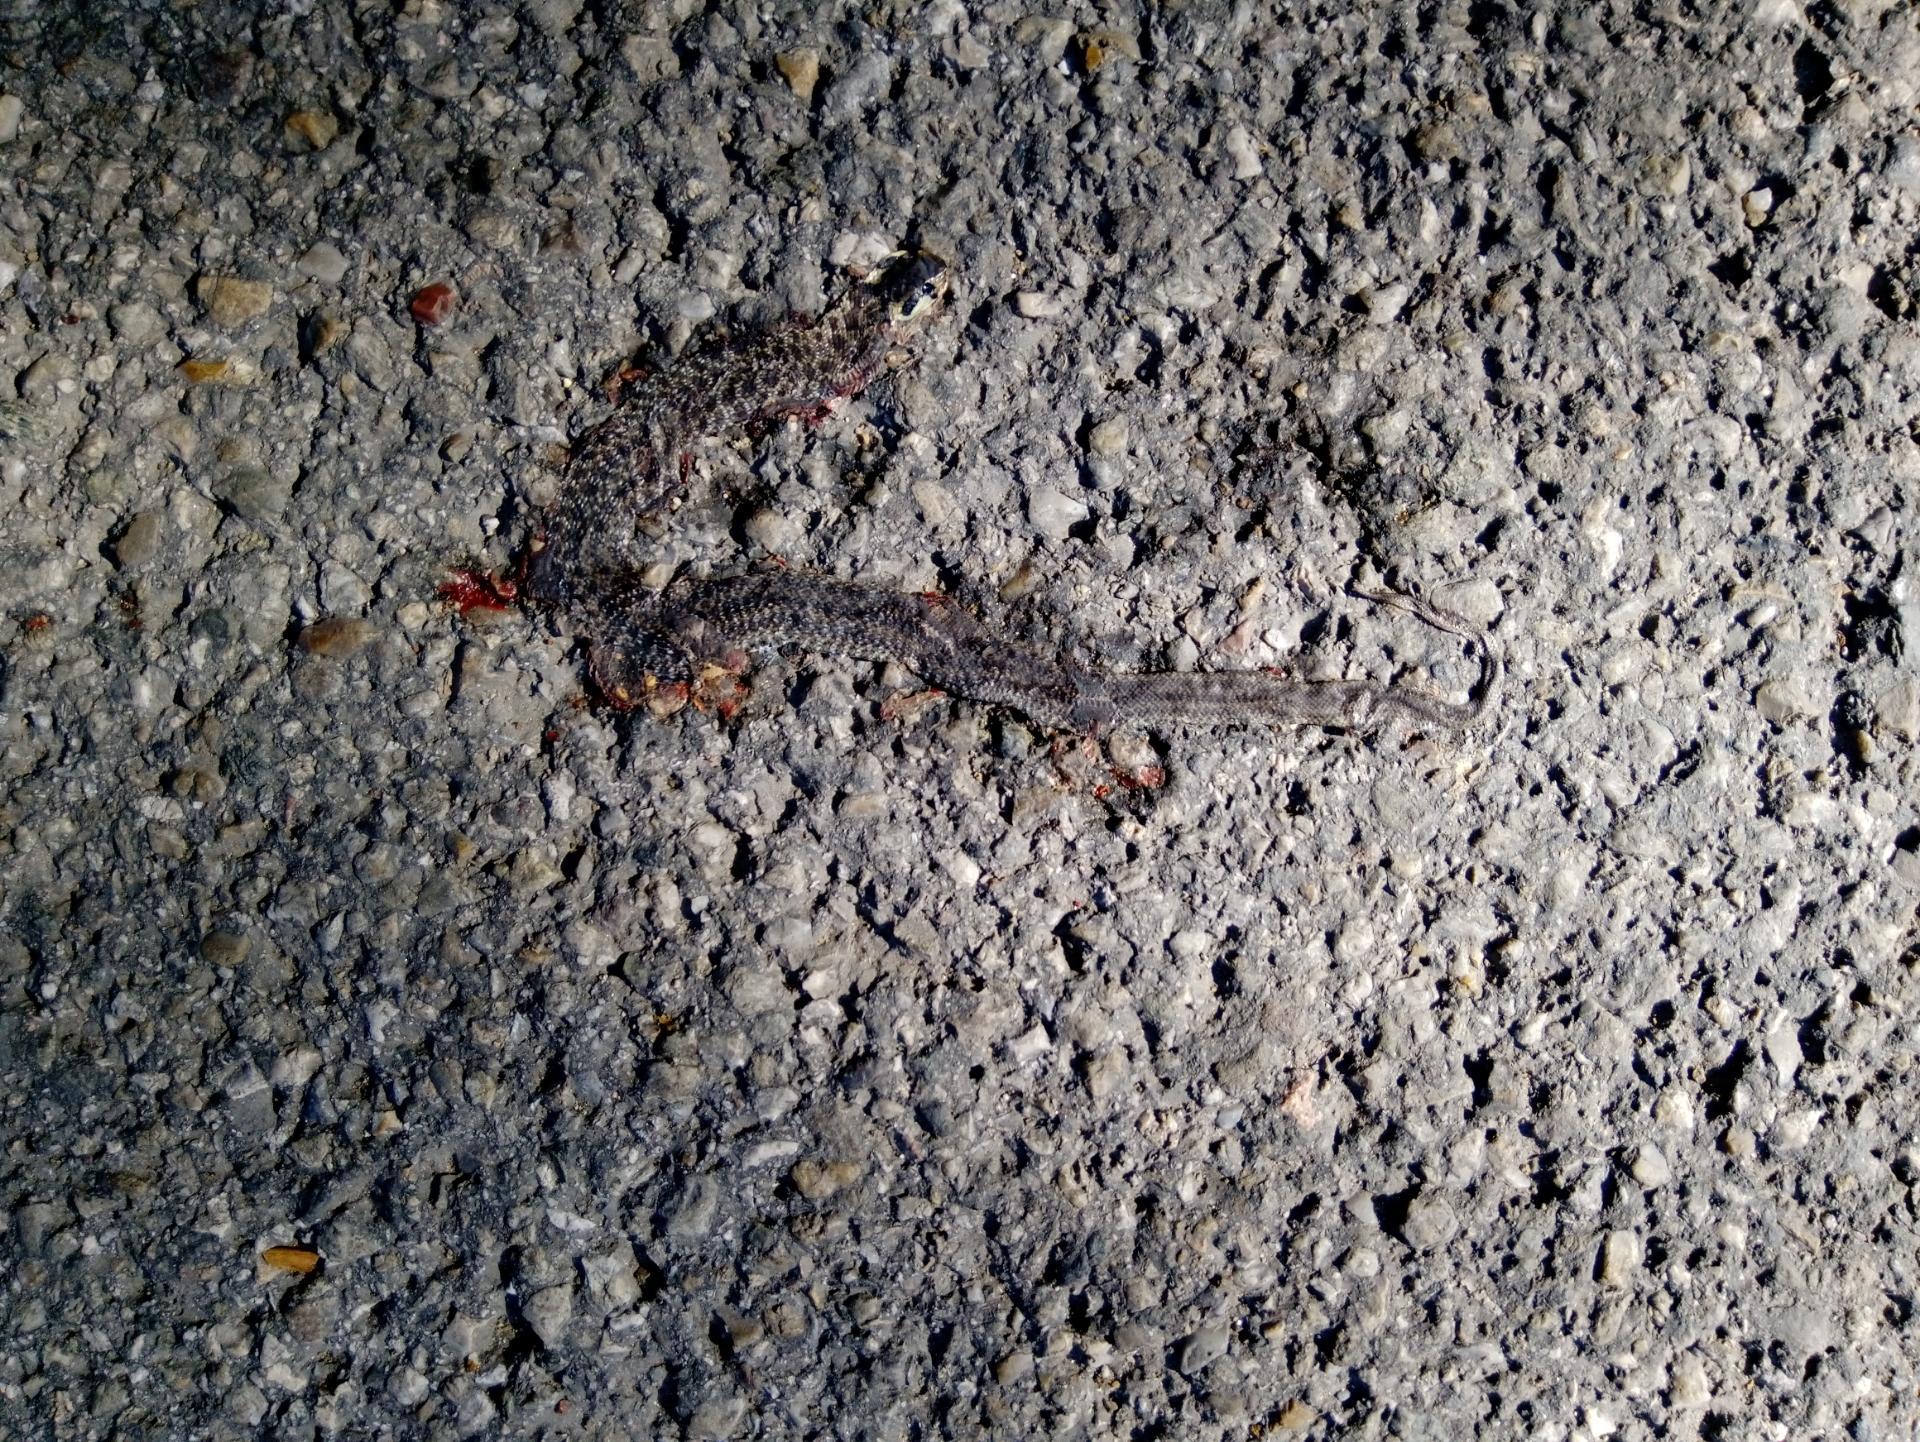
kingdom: Animalia
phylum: Chordata
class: Squamata
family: Colubridae
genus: Zamenis
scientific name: Zamenis longissimus
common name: Aesculapean snake
